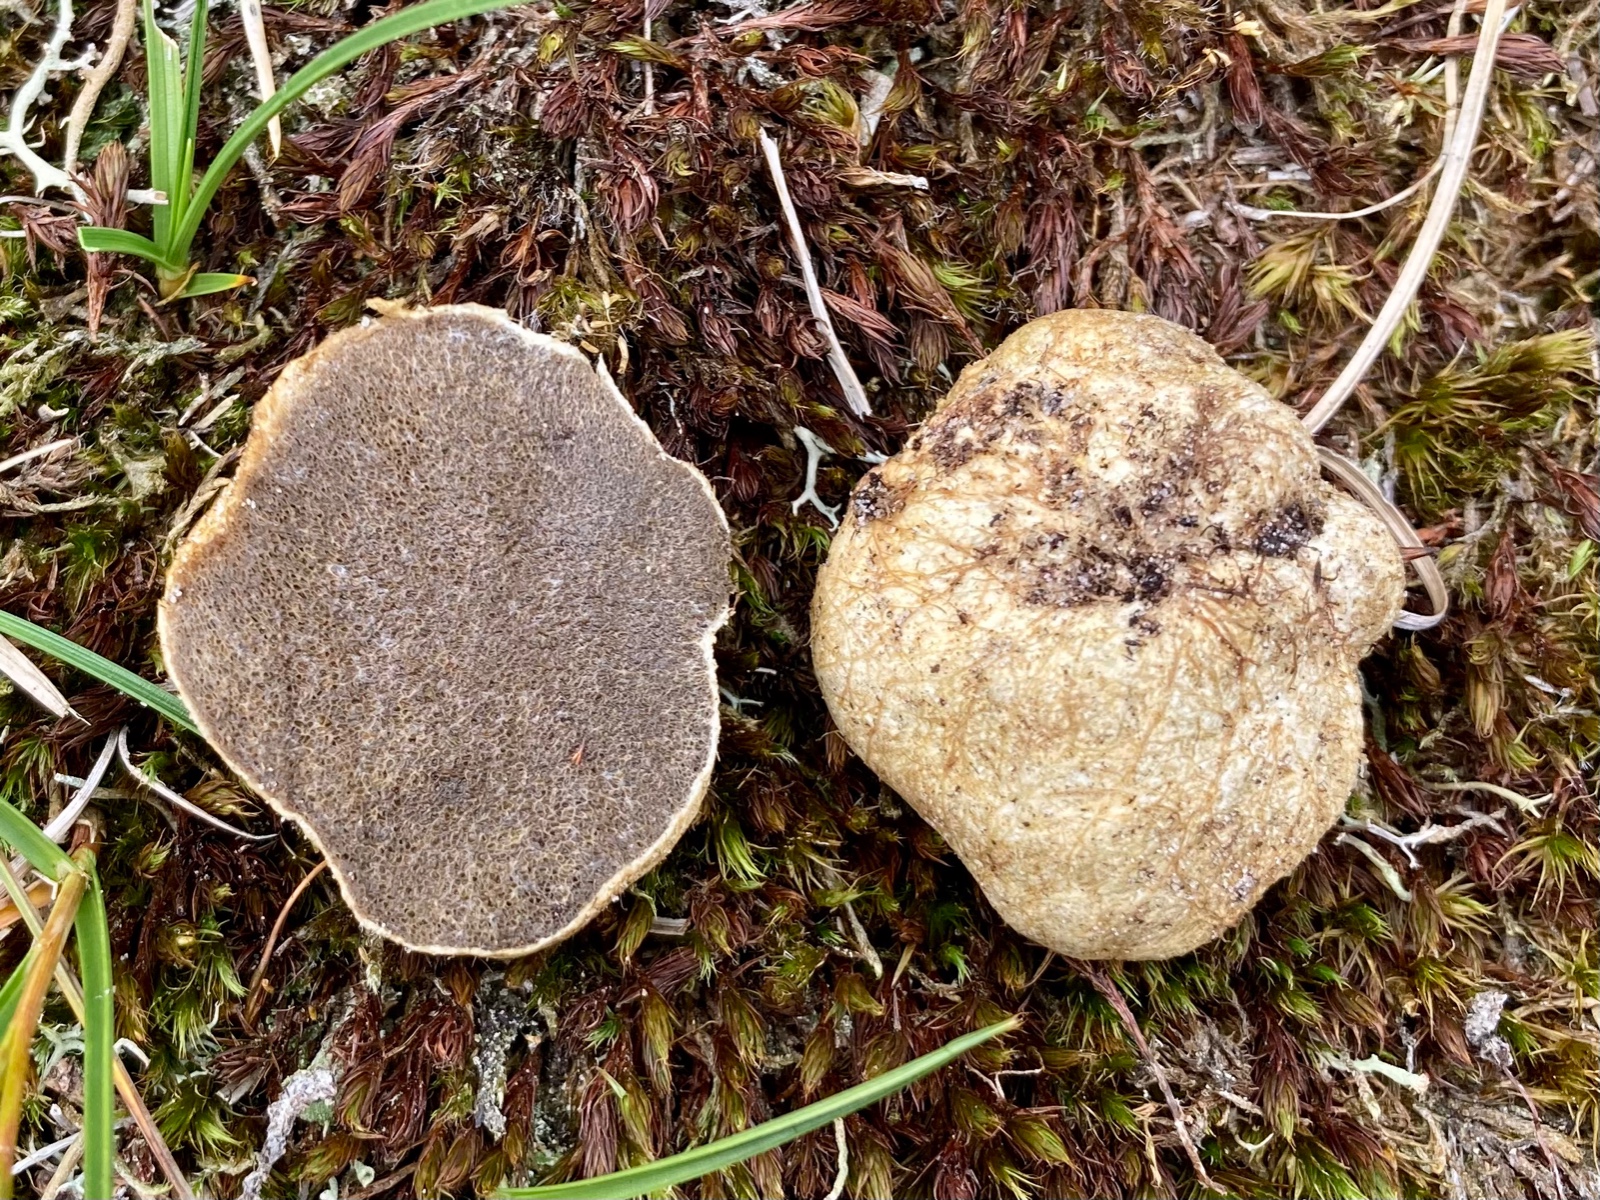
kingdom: Fungi
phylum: Basidiomycota
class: Agaricomycetes
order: Boletales
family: Rhizopogonaceae
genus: Rhizopogon
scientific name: Rhizopogon obtextus
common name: gul skægtrøffel
